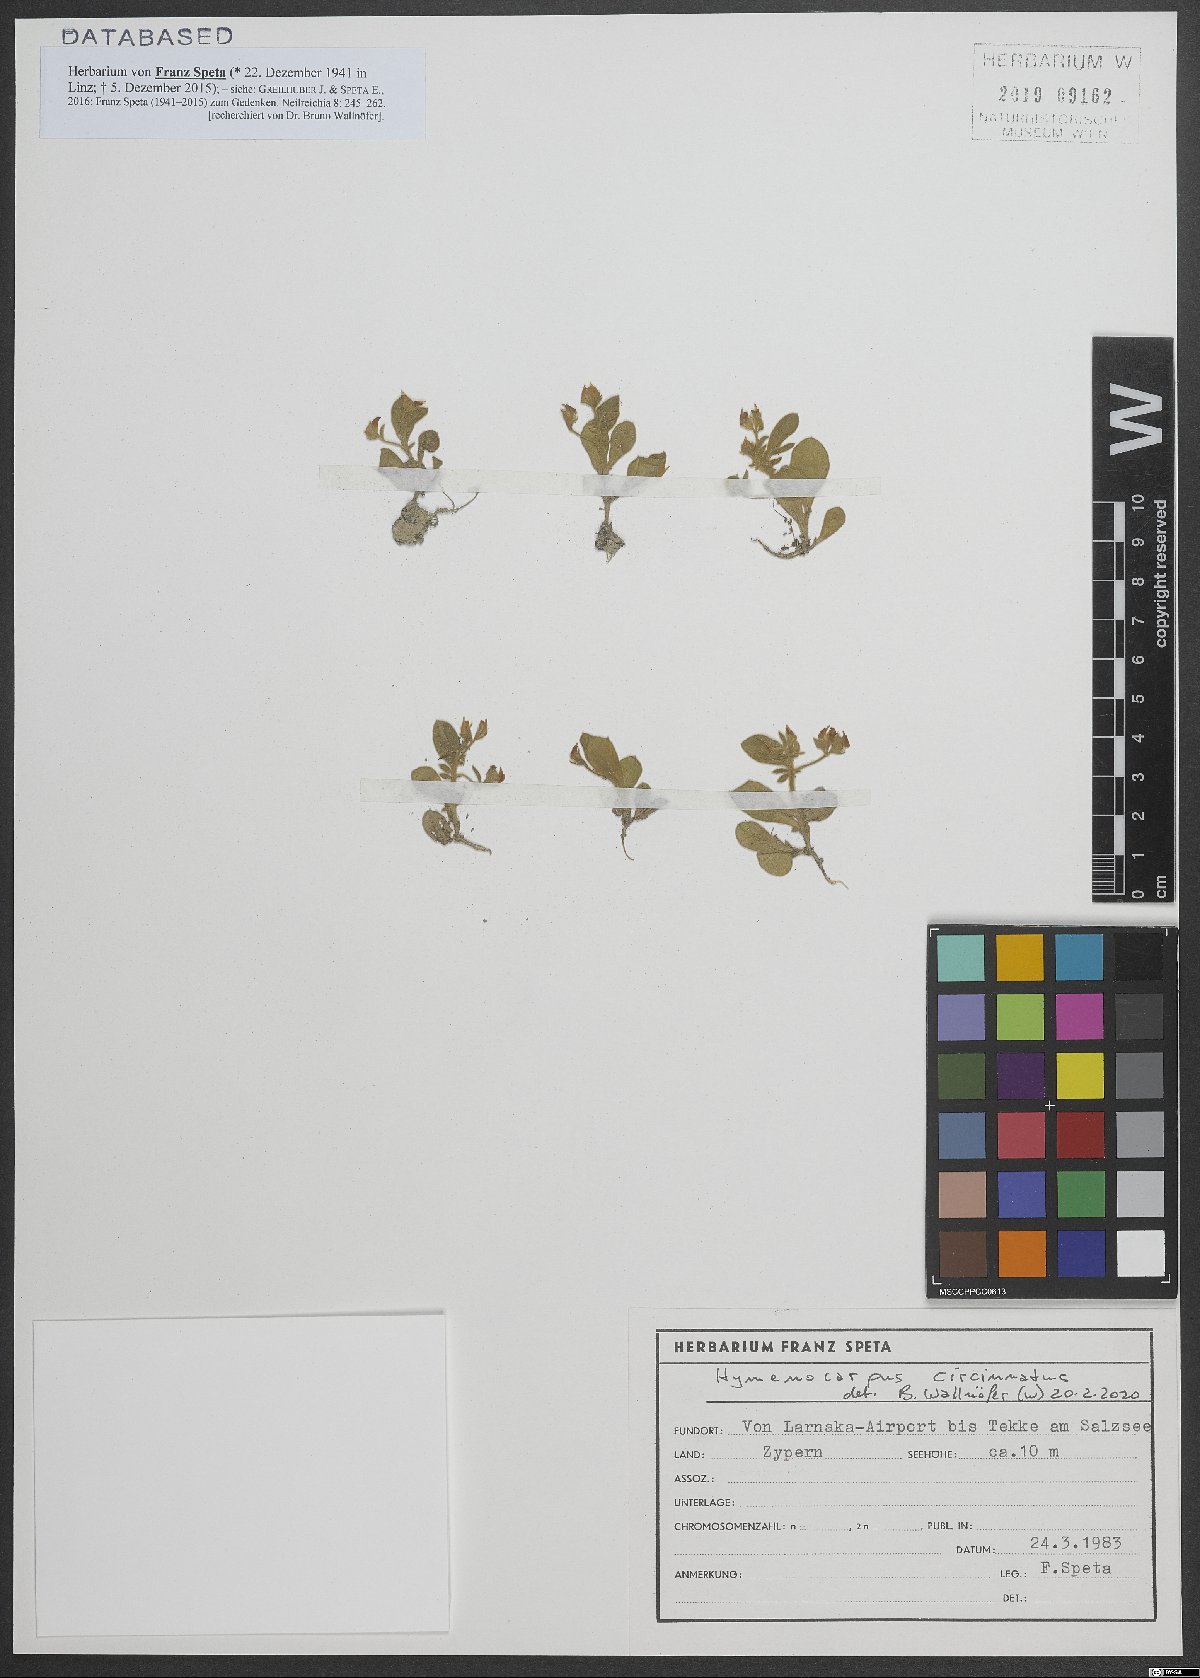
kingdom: Plantae
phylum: Tracheophyta
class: Magnoliopsida
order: Fabales
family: Fabaceae
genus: Anthyllis
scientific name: Anthyllis circinnata
